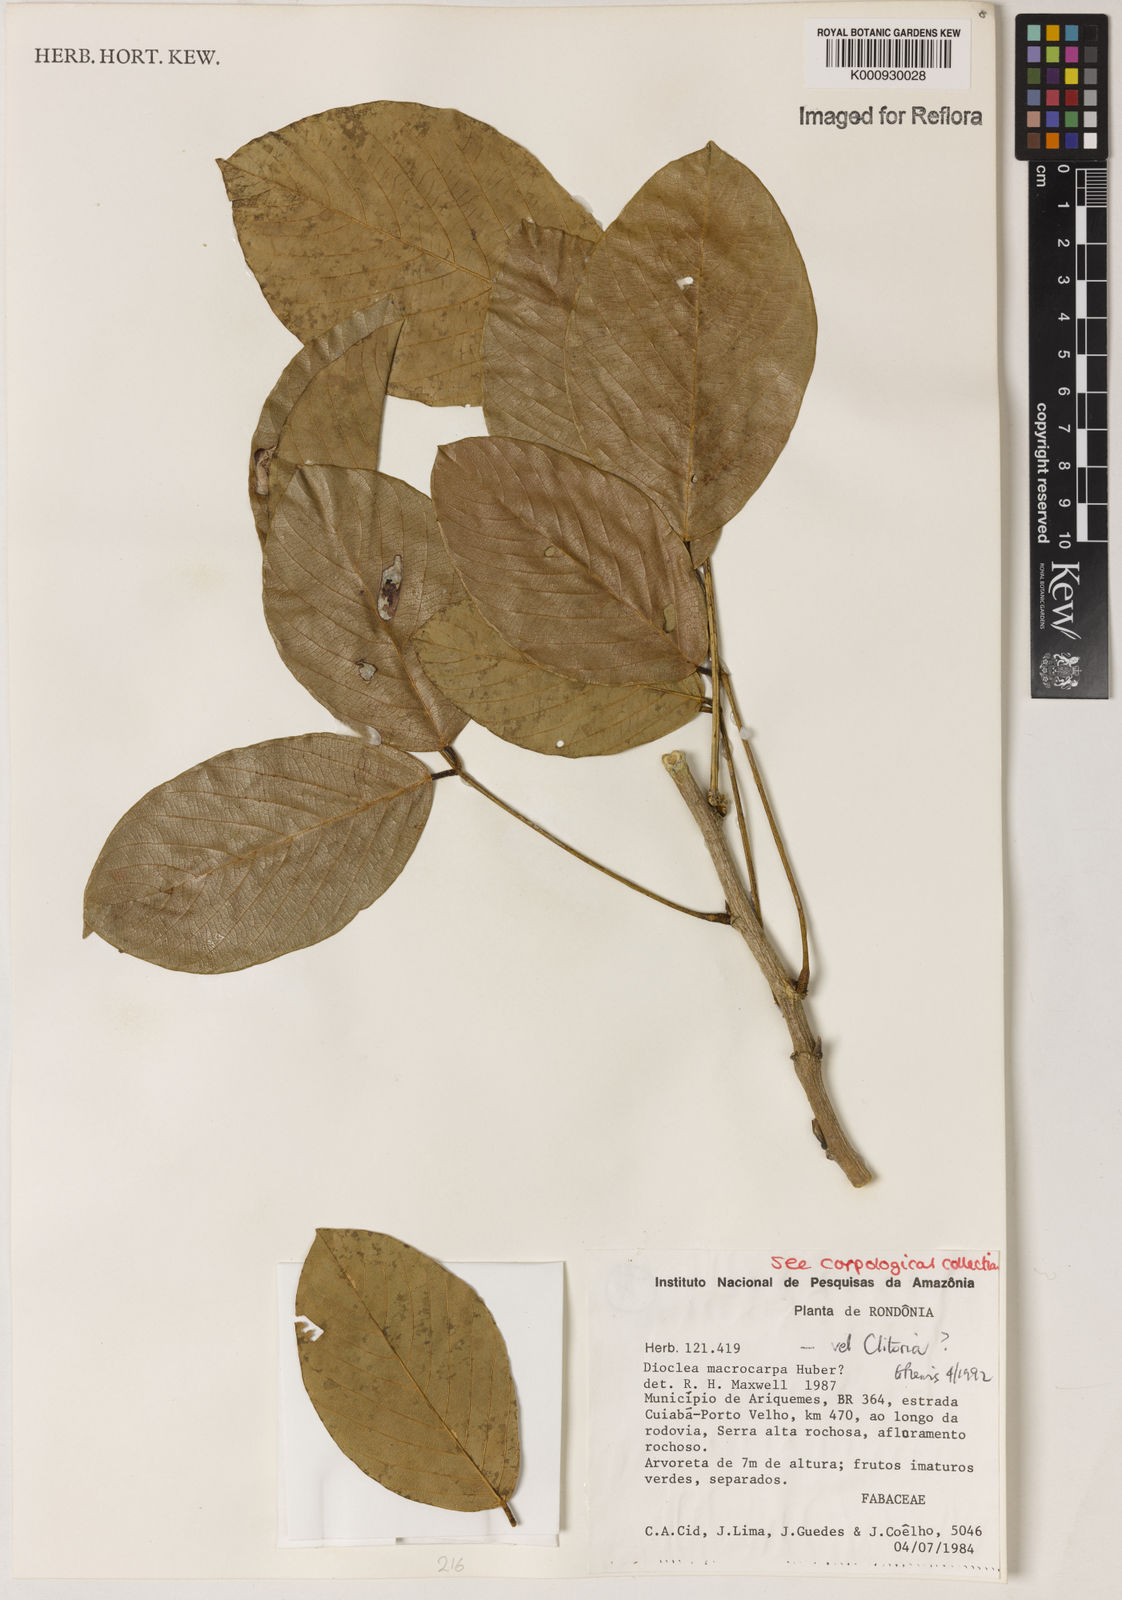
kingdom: Plantae
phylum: Tracheophyta
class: Magnoliopsida
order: Fabales
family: Fabaceae
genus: Macropsychanthus
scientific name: Macropsychanthus macrocarpus
